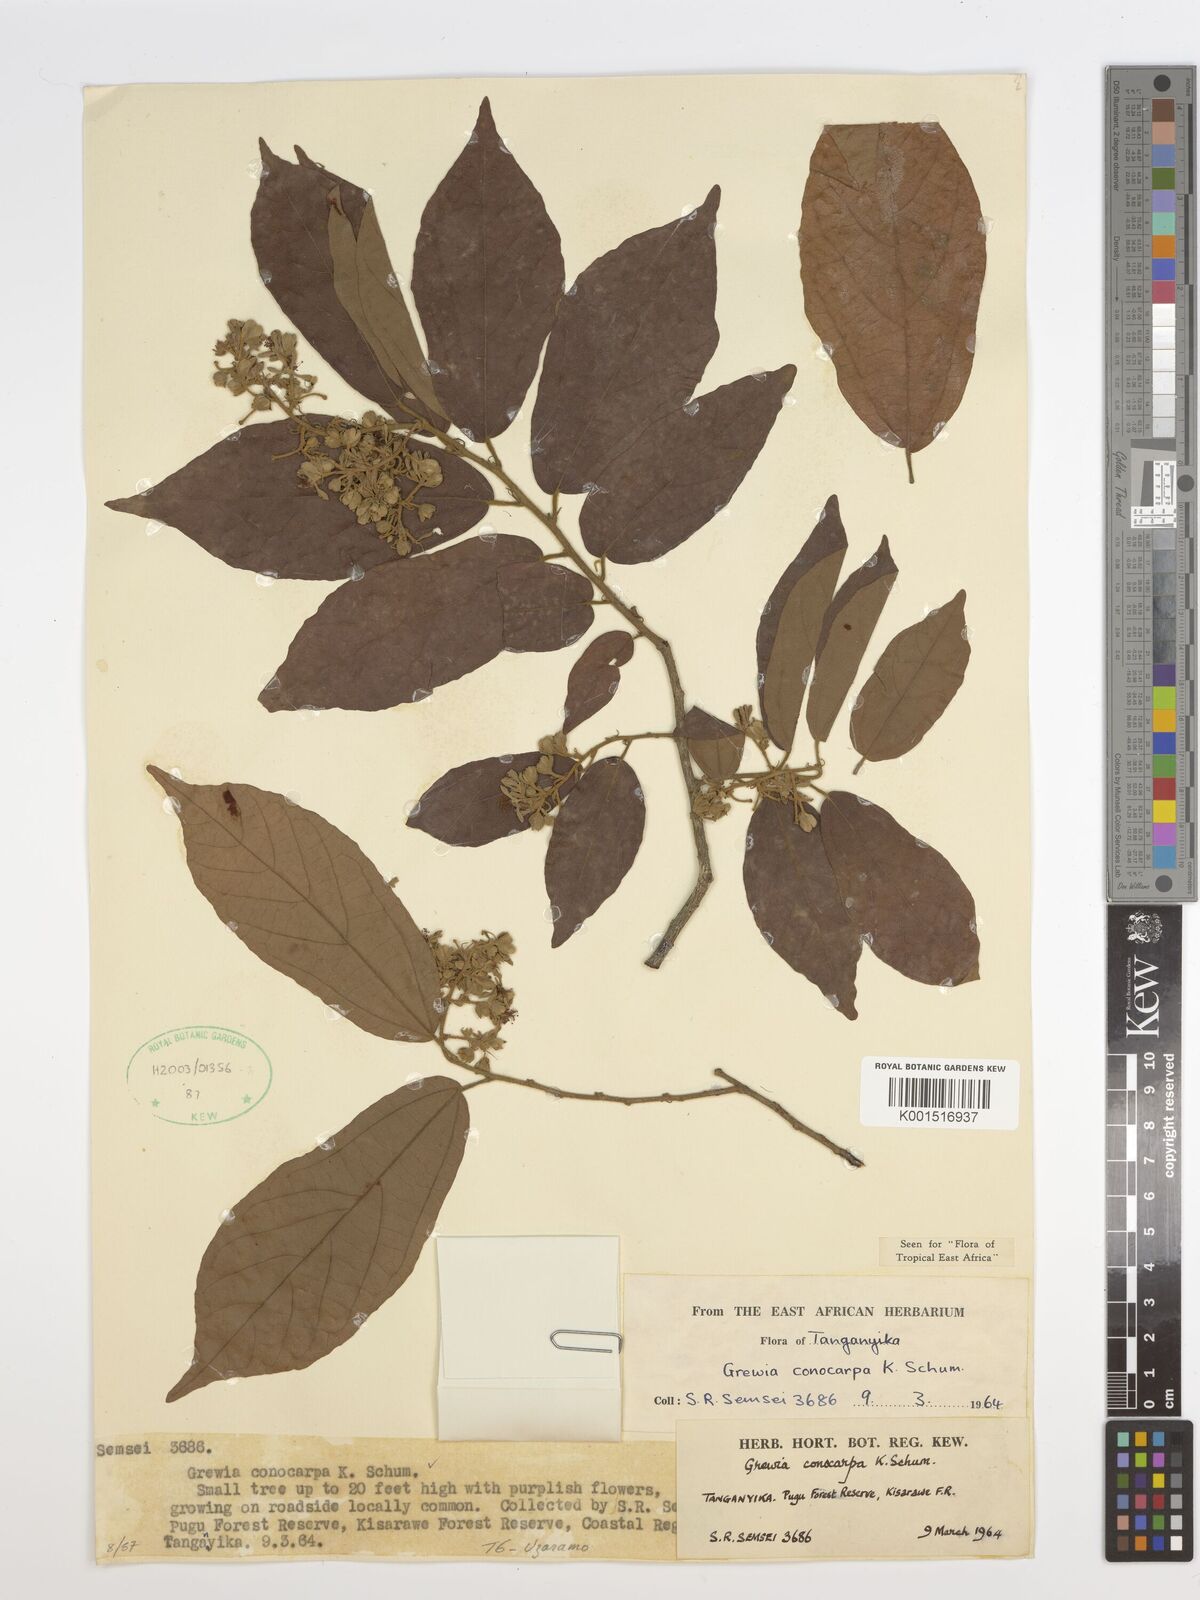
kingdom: Plantae
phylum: Tracheophyta
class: Magnoliopsida
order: Malvales
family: Malvaceae
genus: Microcos
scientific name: Microcos conocarpa
